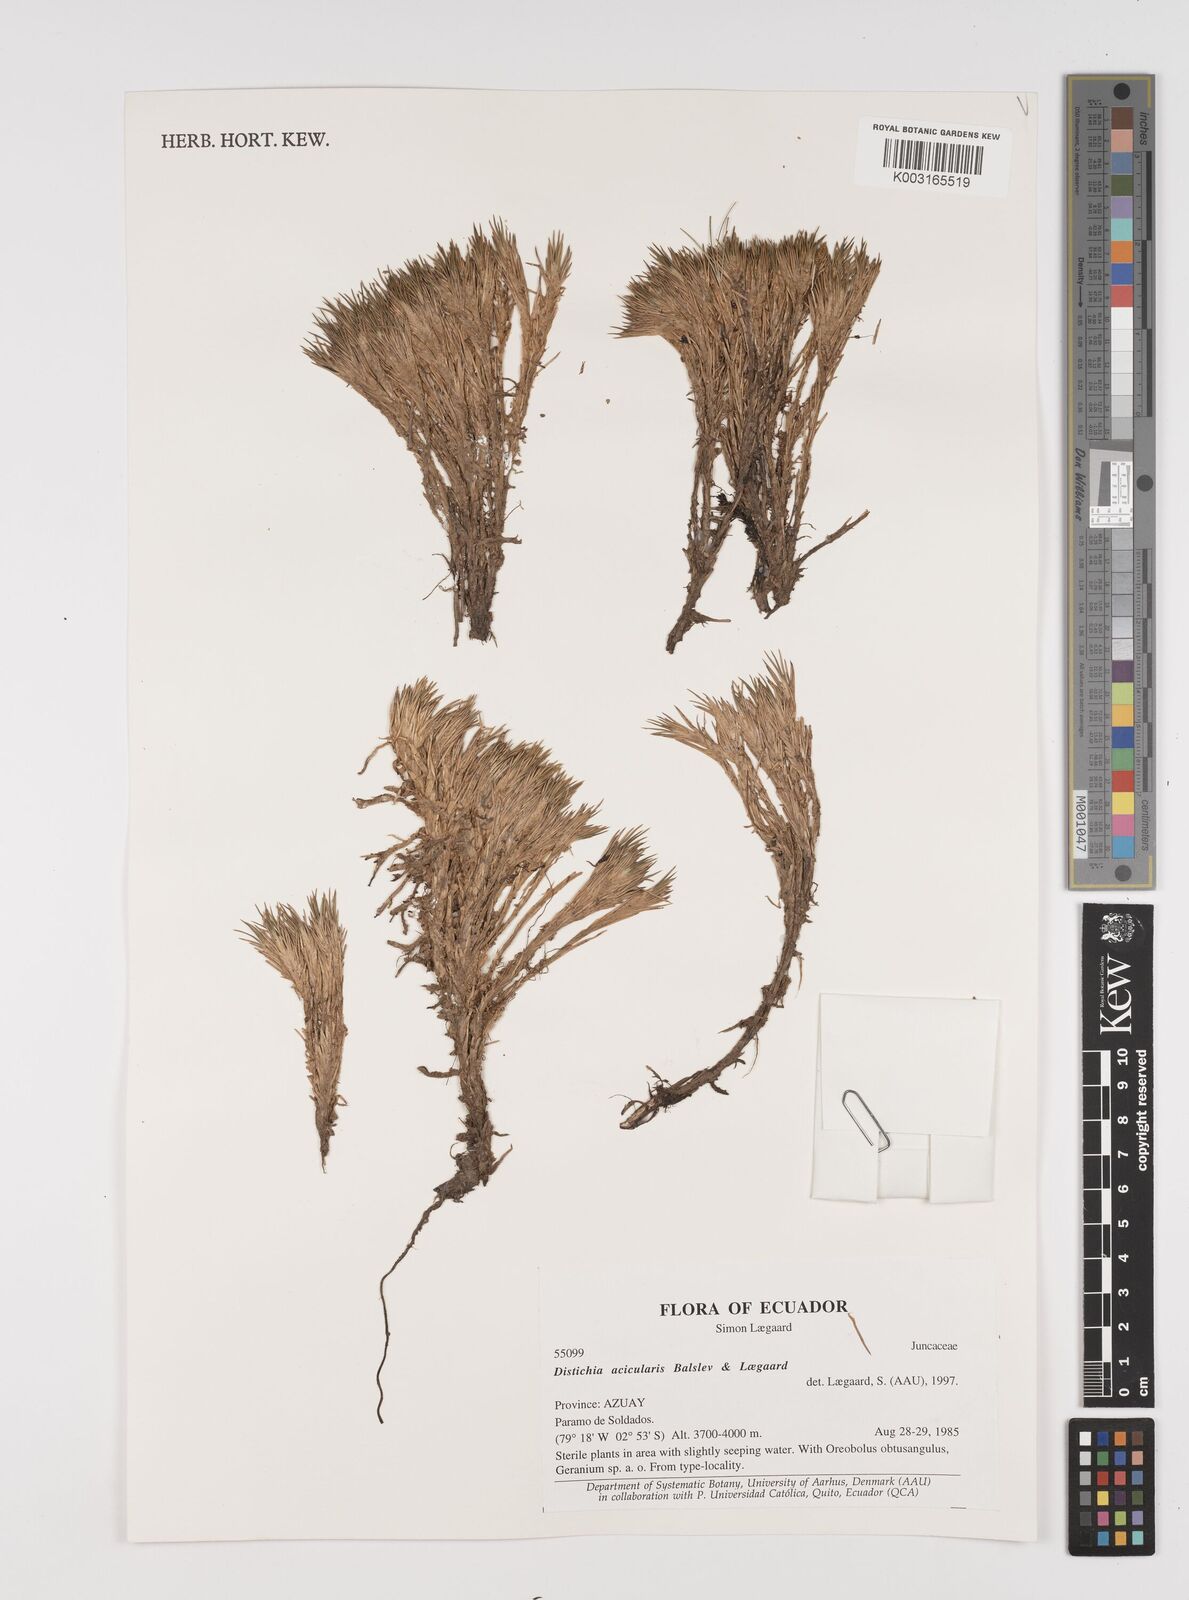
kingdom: Plantae
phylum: Tracheophyta
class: Liliopsida
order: Poales
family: Juncaceae
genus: Distichia
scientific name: Distichia acicularis
